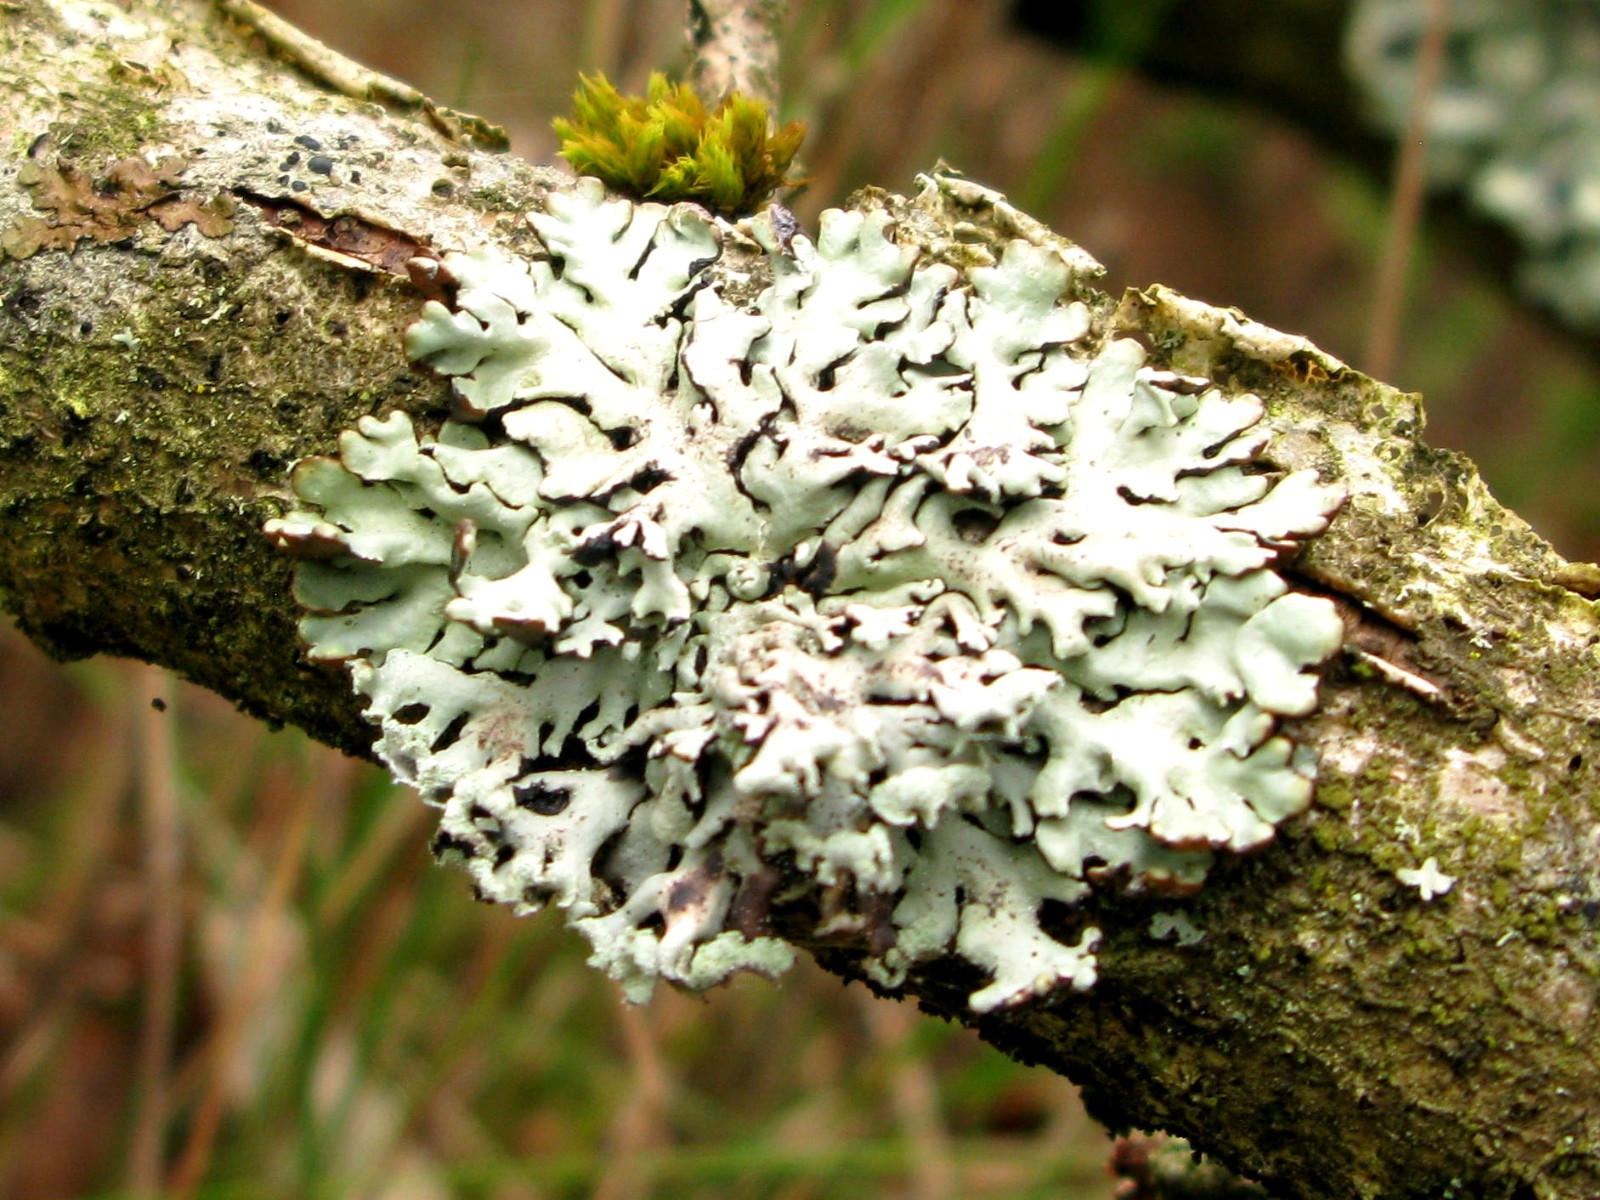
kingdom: Fungi
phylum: Ascomycota
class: Lecanoromycetes
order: Lecanorales
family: Parmeliaceae
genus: Hypogymnia
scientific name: Hypogymnia physodes
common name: almindelig kvistlav
